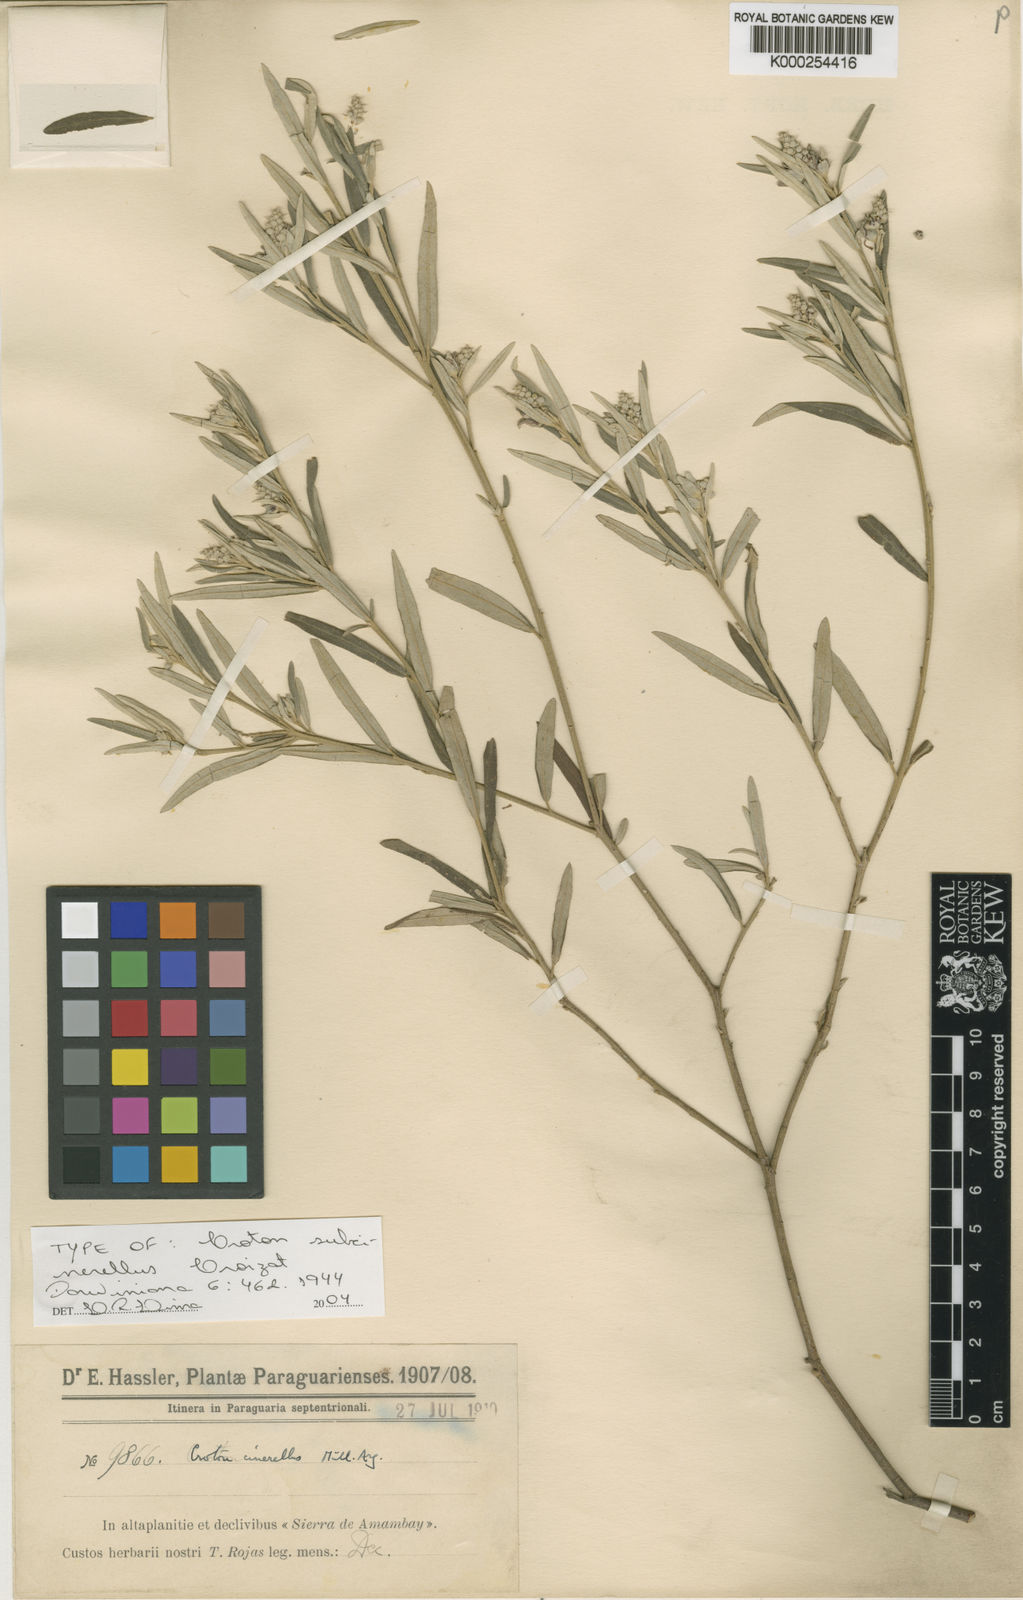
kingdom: Plantae
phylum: Tracheophyta
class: Magnoliopsida
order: Malpighiales
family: Euphorbiaceae
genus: Croton
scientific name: Croton subcinerellus
